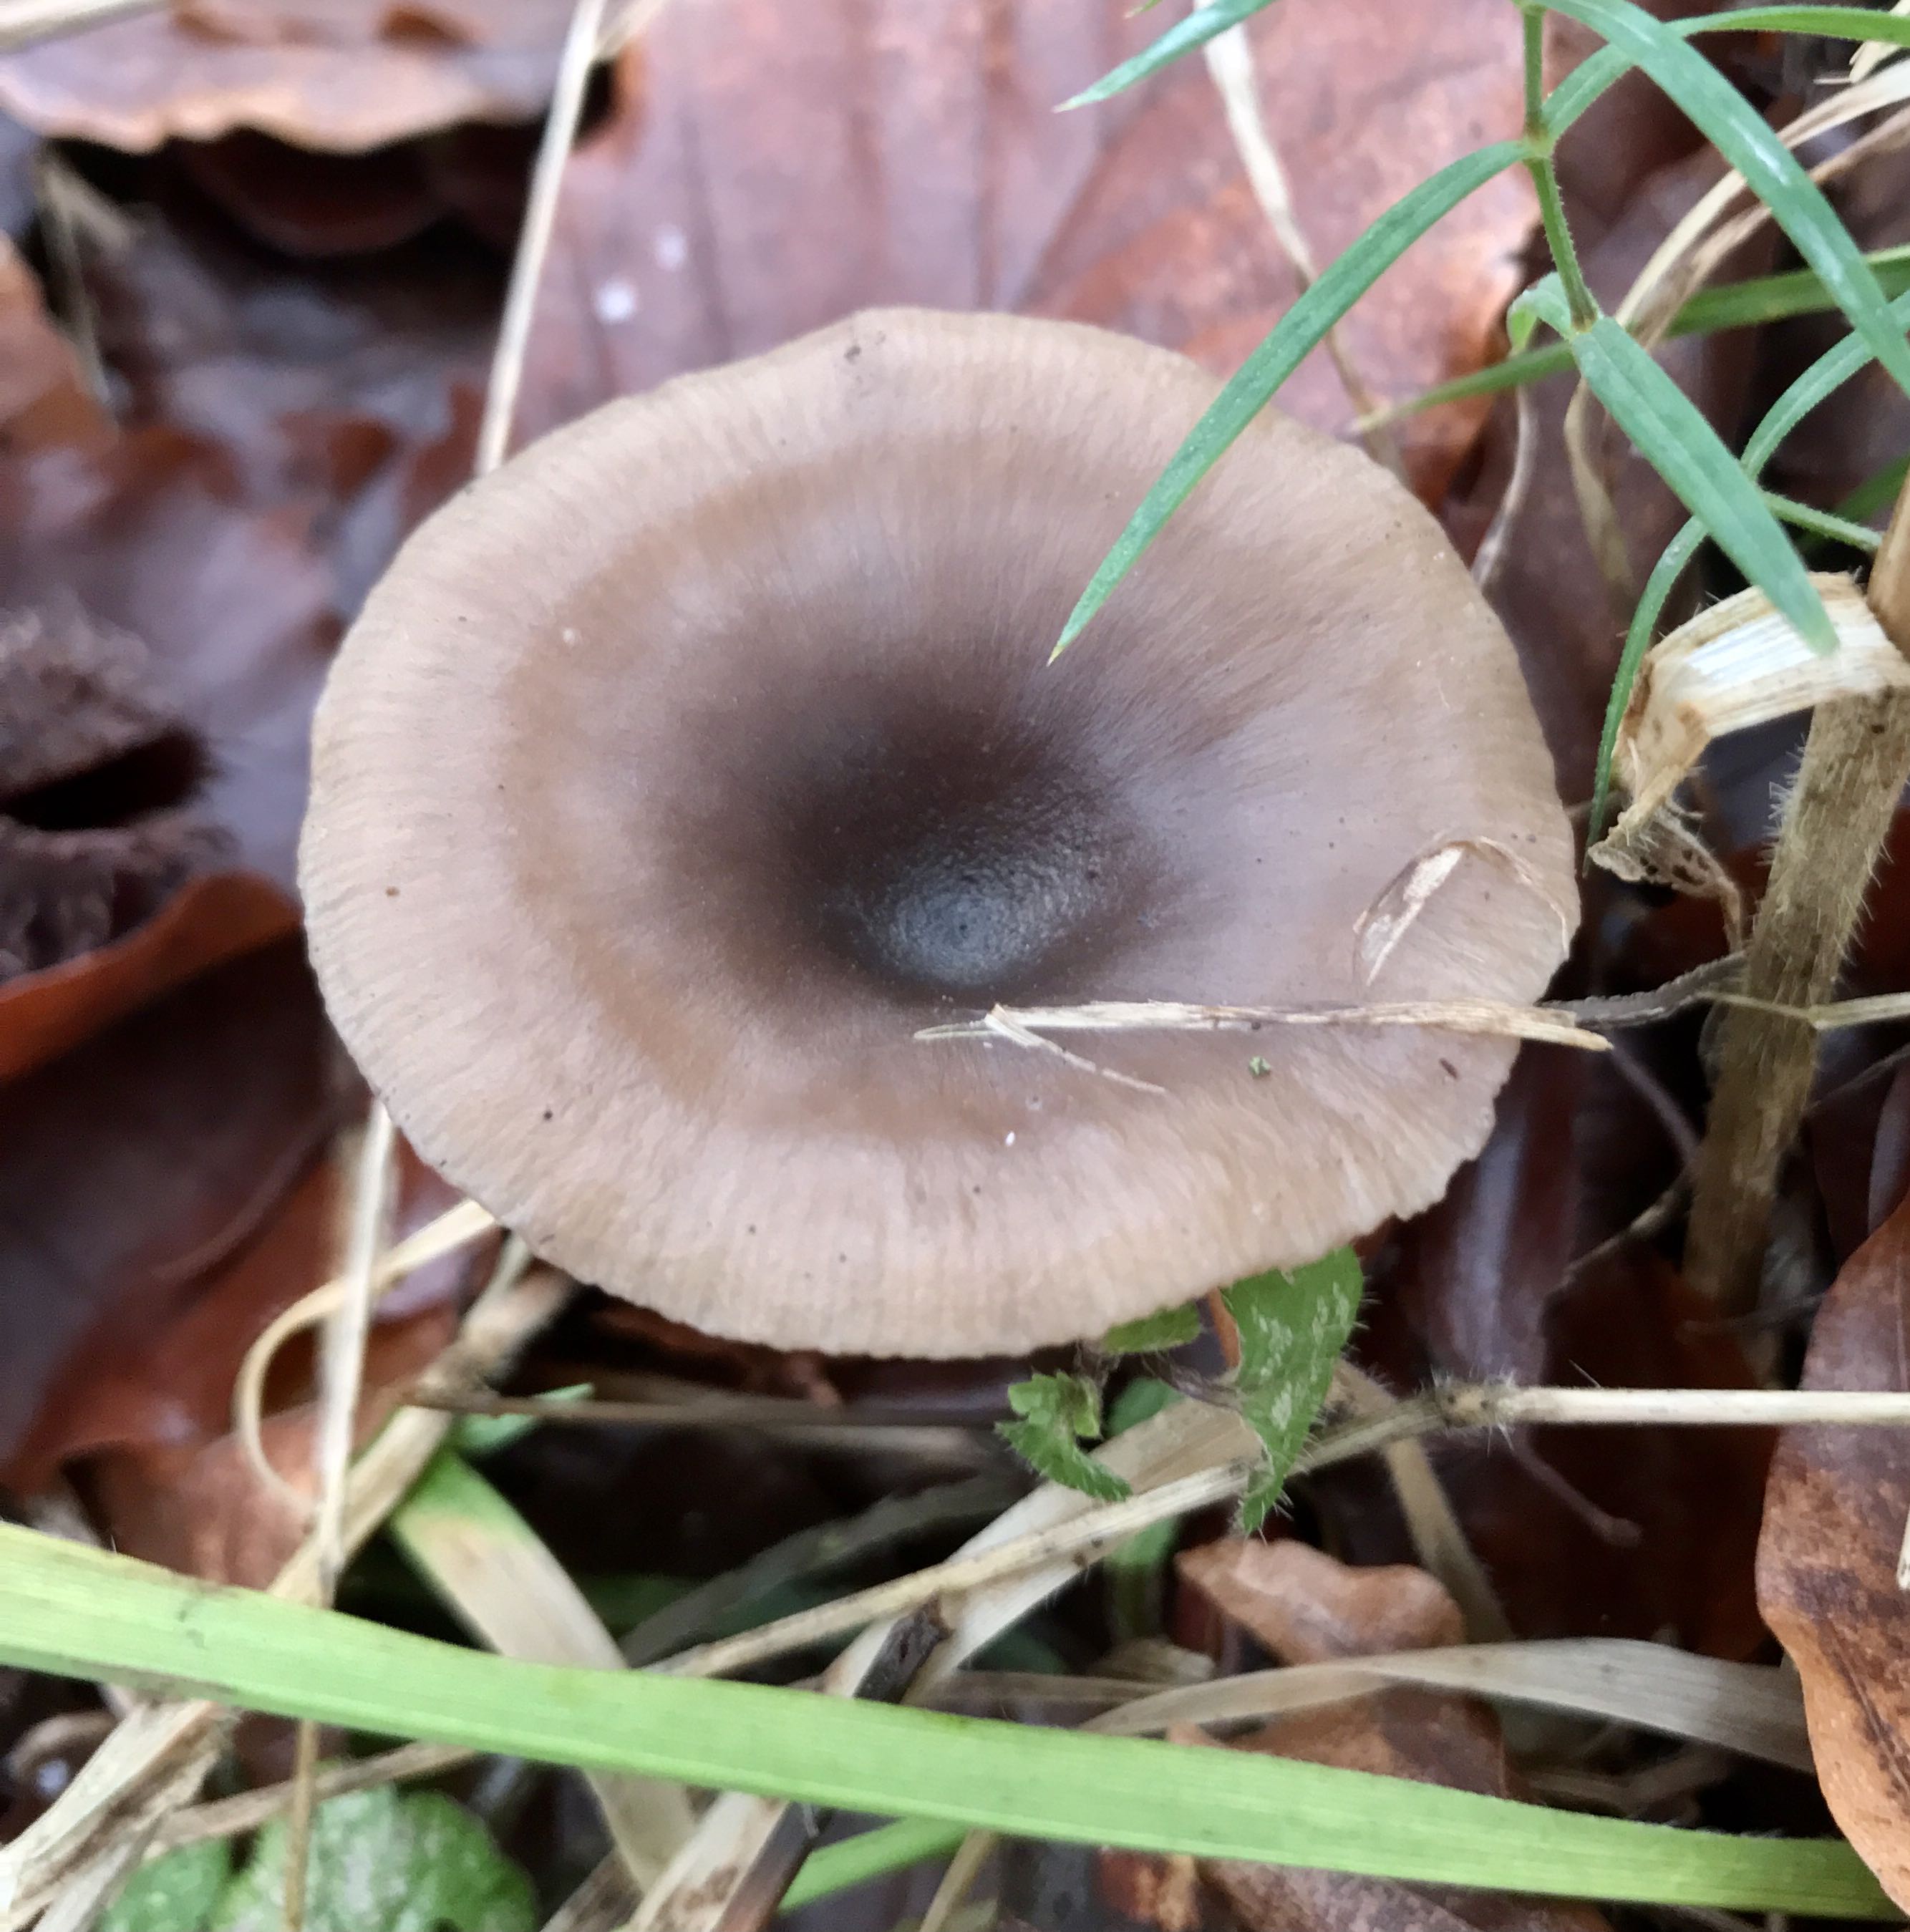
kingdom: Fungi
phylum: Basidiomycota
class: Agaricomycetes
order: Agaricales
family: Pseudoclitocybaceae
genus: Pseudoclitocybe
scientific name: Pseudoclitocybe cyathiformis
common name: almindelig bægertragthat
